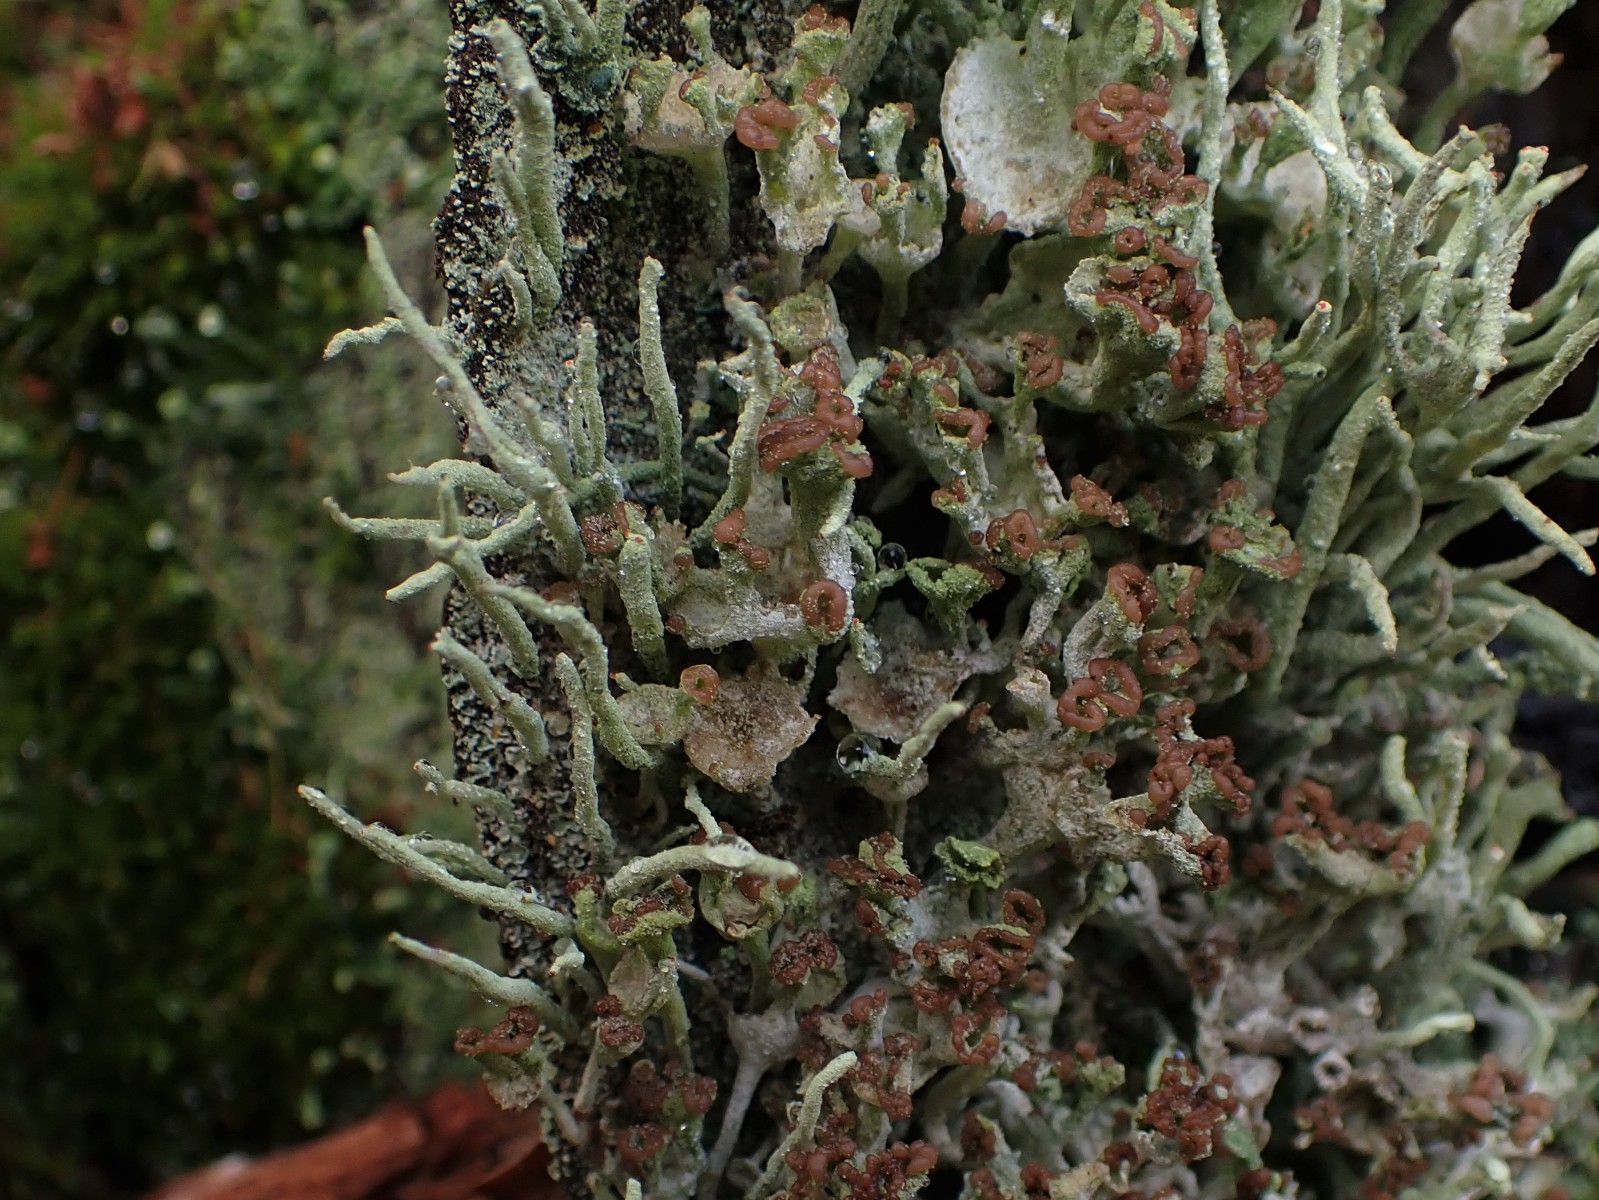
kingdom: Fungi
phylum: Ascomycota
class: Lecanoromycetes
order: Lecanorales
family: Cladoniaceae
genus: Cladonia
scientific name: Cladonia ramulosa
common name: kliddet bægerlav
